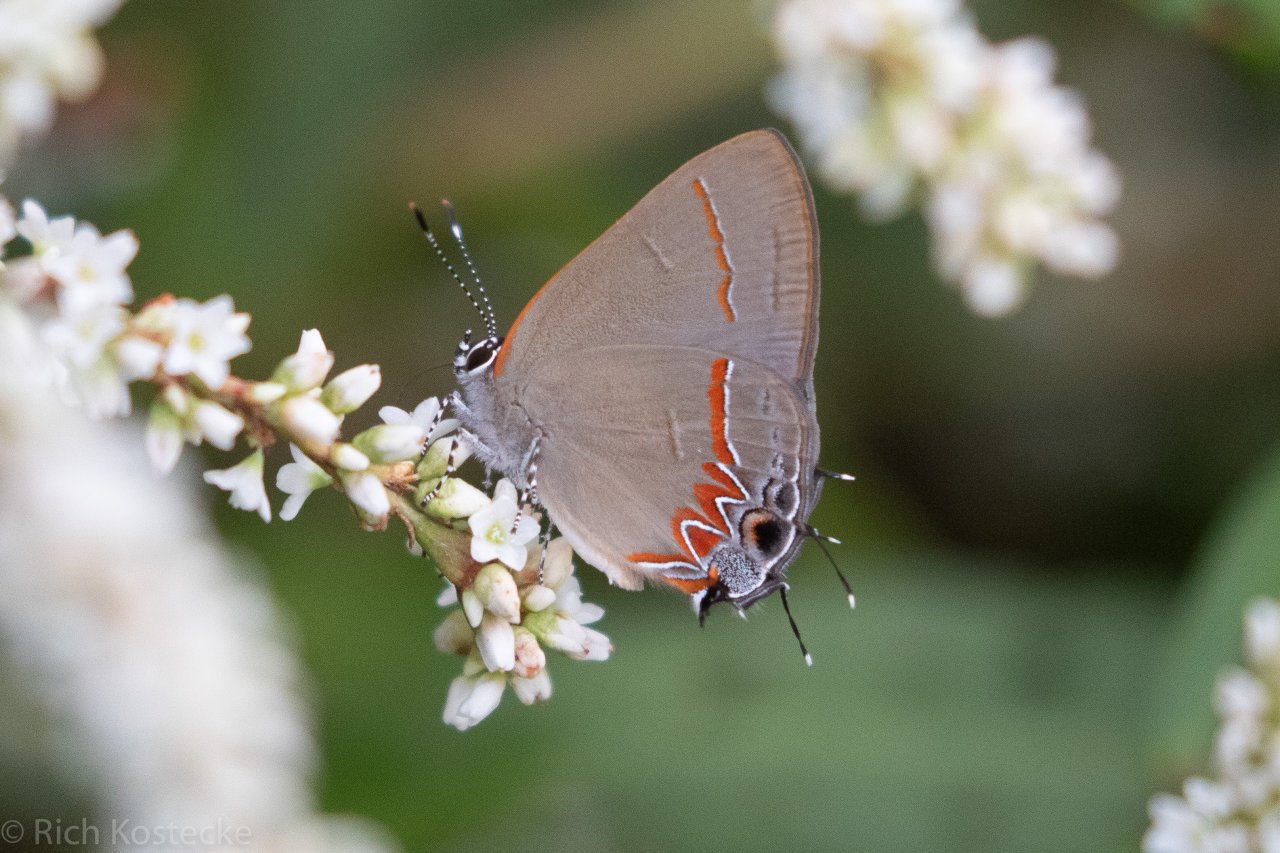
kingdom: Animalia
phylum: Arthropoda
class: Insecta
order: Lepidoptera
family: Lycaenidae
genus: Calycopis
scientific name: Calycopis isobeon
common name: Dusky-blue Groundstreak
